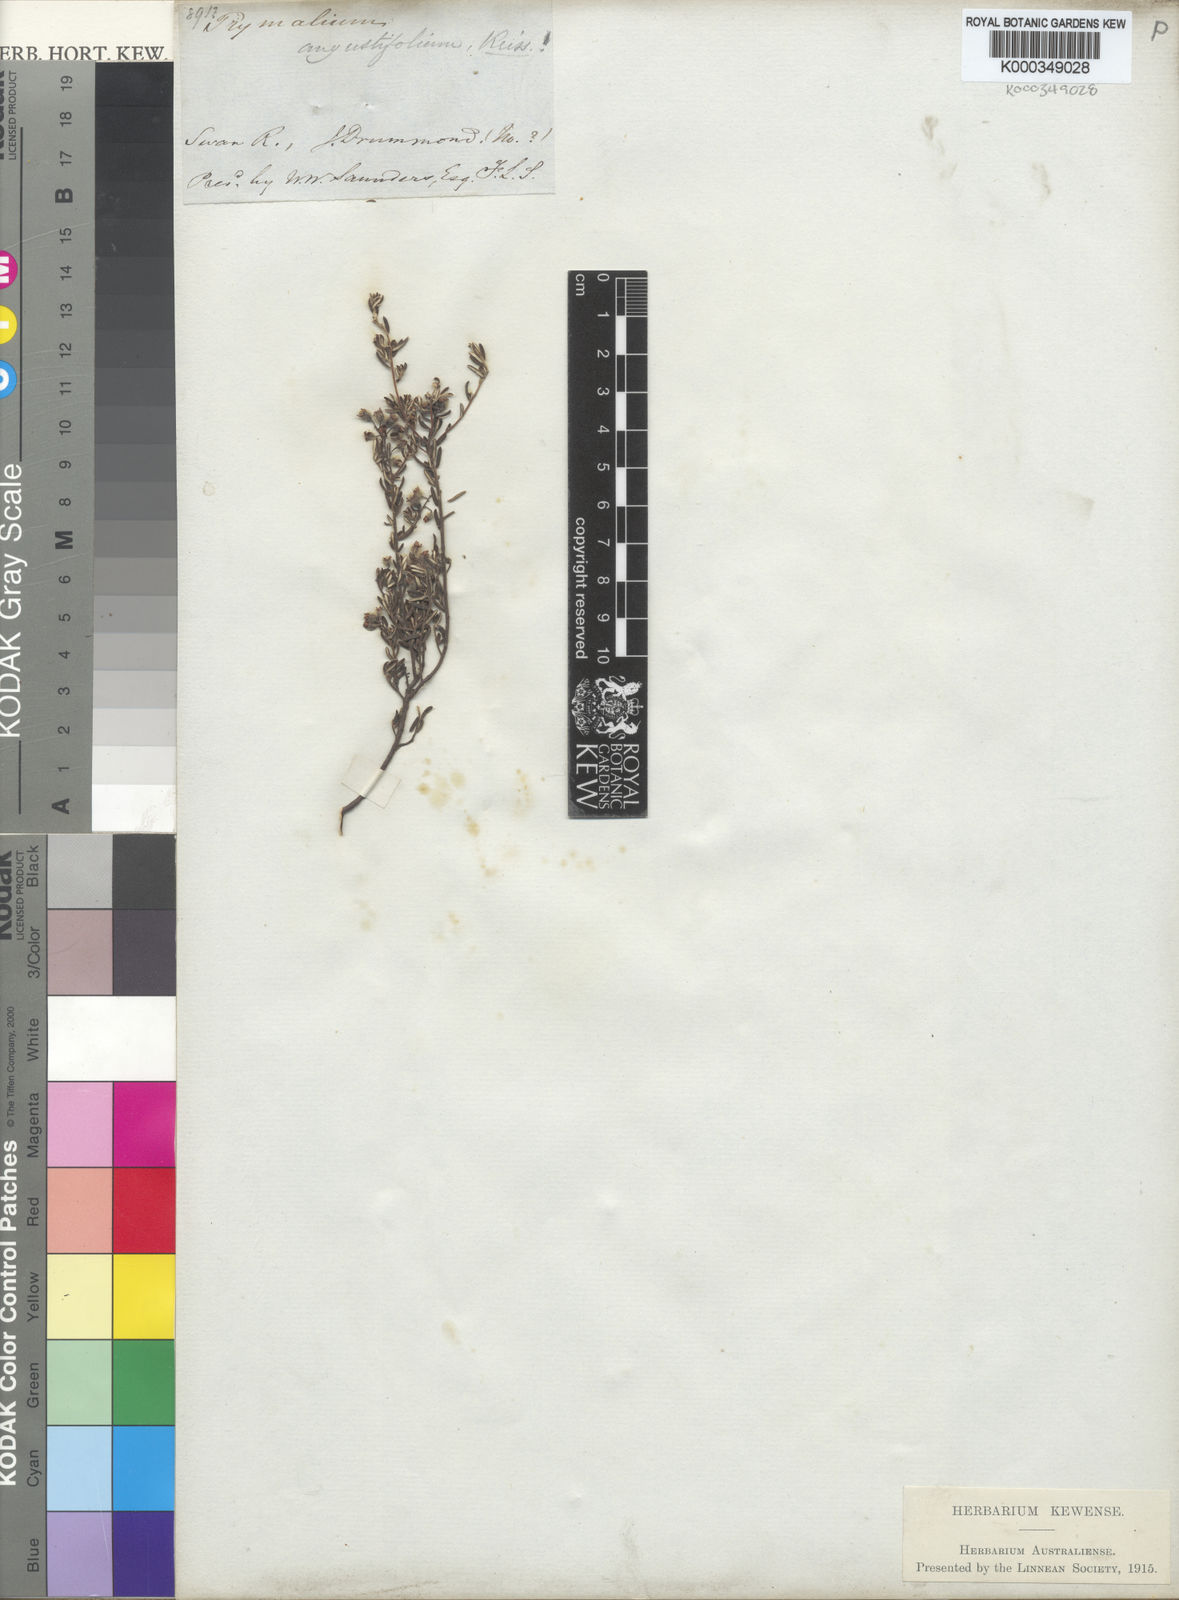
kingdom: Plantae
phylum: Tracheophyta
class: Magnoliopsida
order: Rosales
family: Rhamnaceae
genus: Trymalium
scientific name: Trymalium angustifolium
